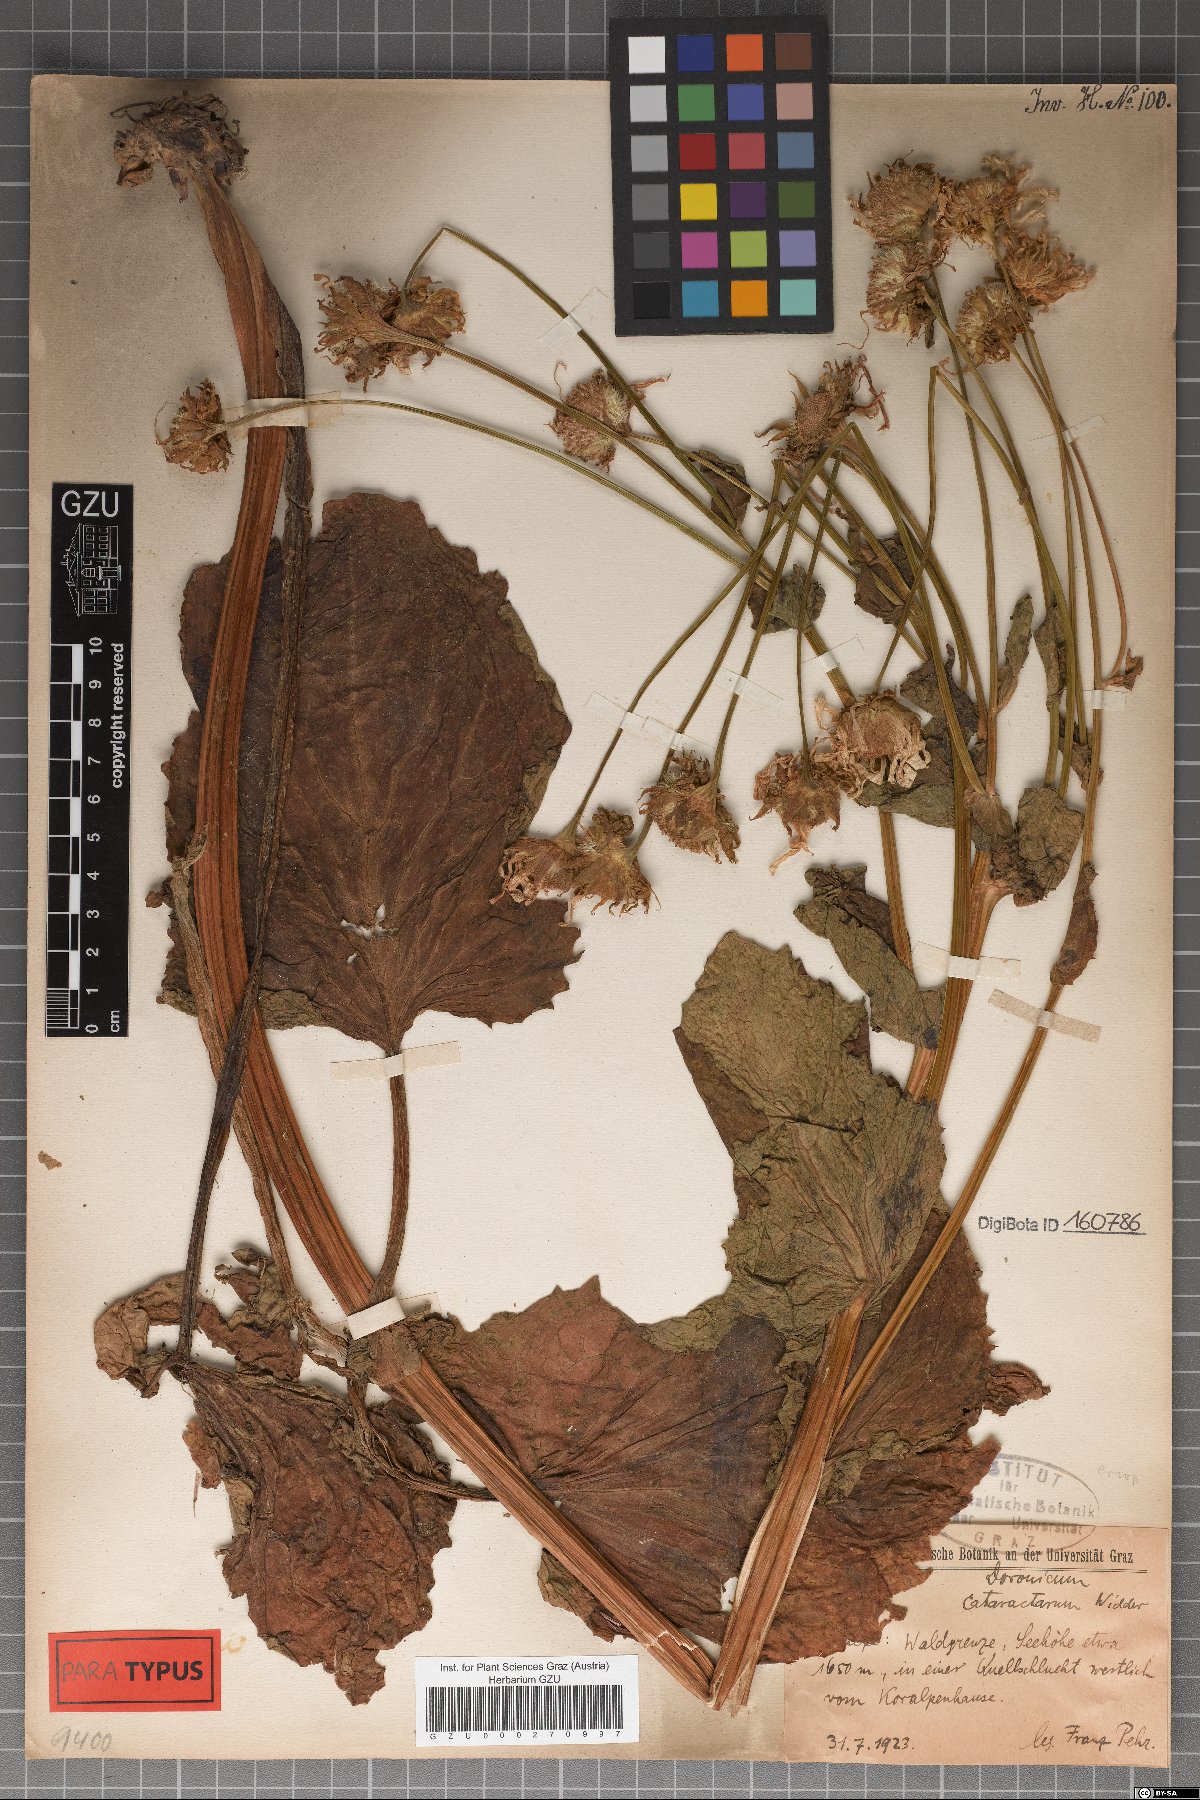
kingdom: Plantae
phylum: Tracheophyta
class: Magnoliopsida
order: Asterales
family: Asteraceae
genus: Doronicum
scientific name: Doronicum cataractarum
